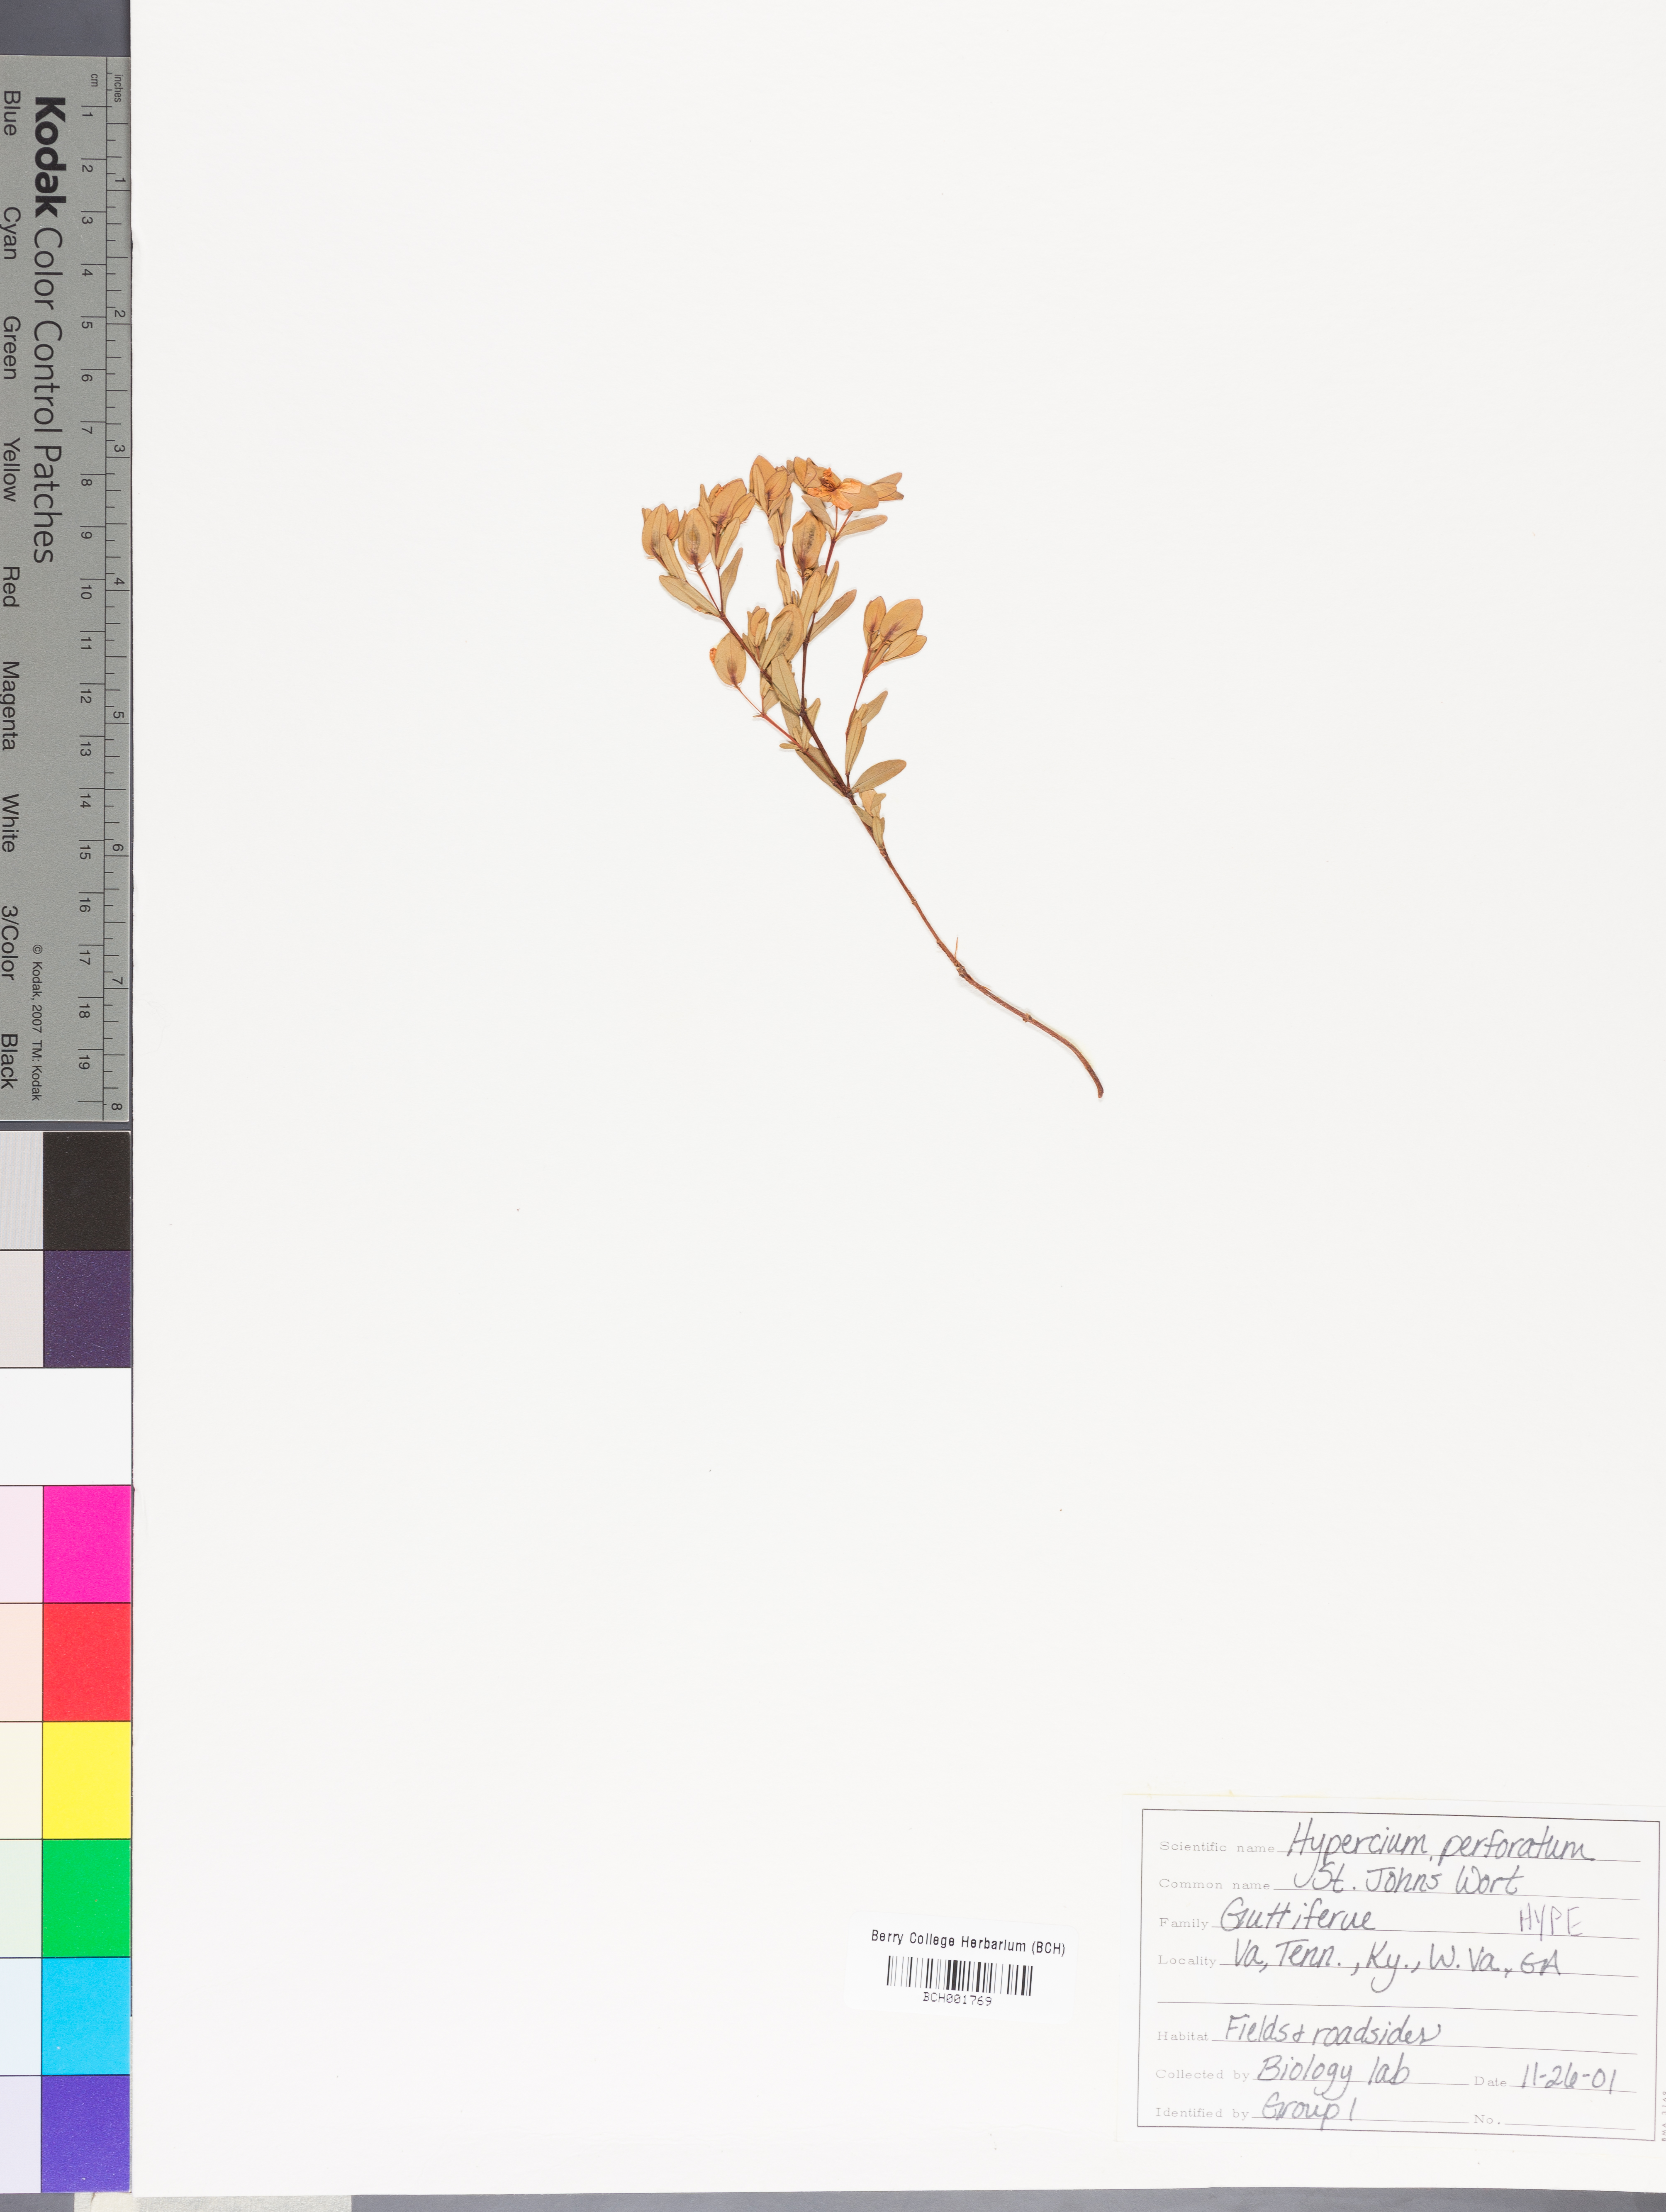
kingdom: Plantae
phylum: Tracheophyta
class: Magnoliopsida
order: Malpighiales
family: Hypericaceae
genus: Hypericum
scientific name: Hypericum perforatum
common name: Common st. johnswort
